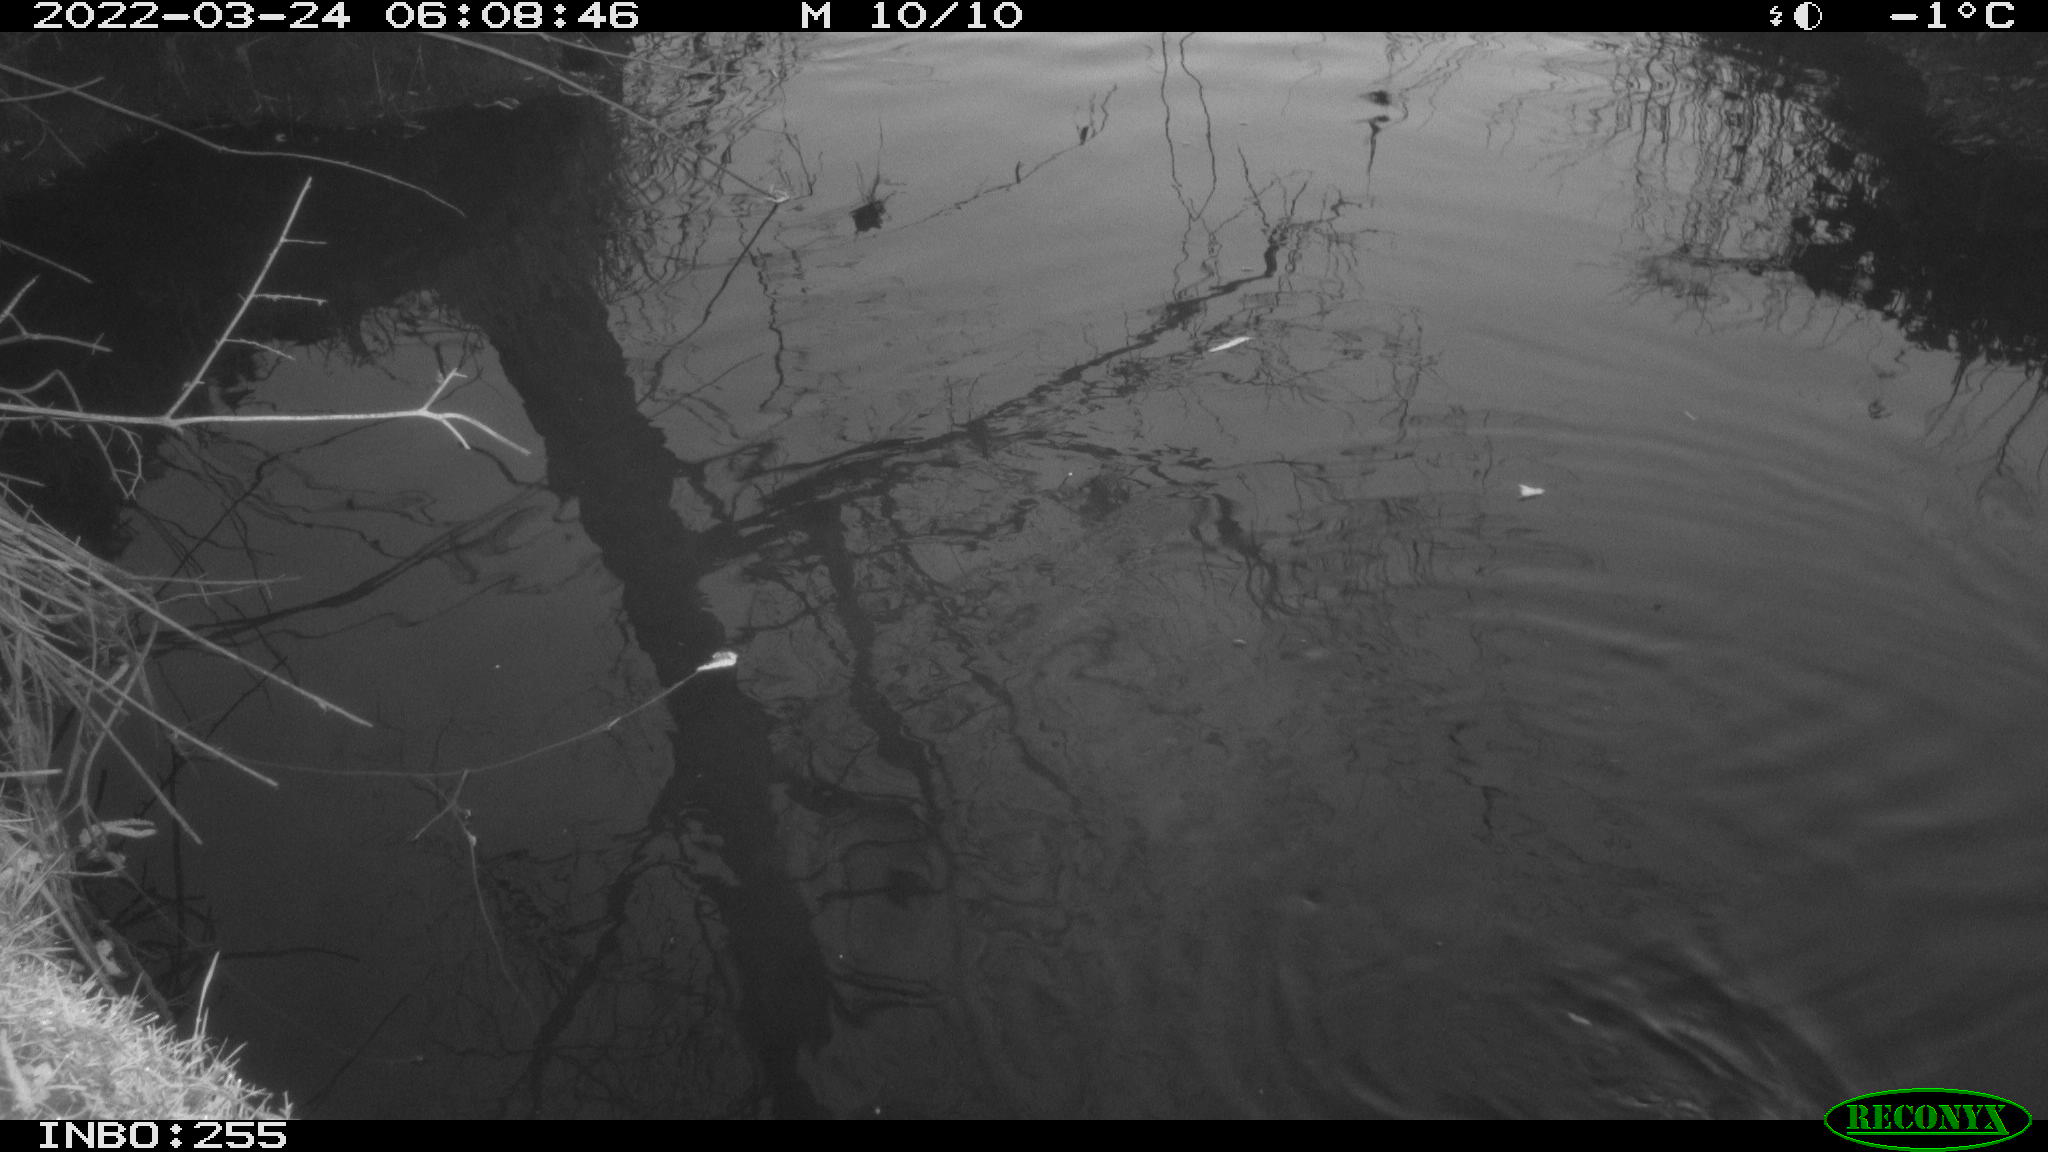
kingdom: Animalia
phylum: Chordata
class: Aves
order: Gruiformes
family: Rallidae
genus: Gallinula
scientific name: Gallinula chloropus
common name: Common moorhen
